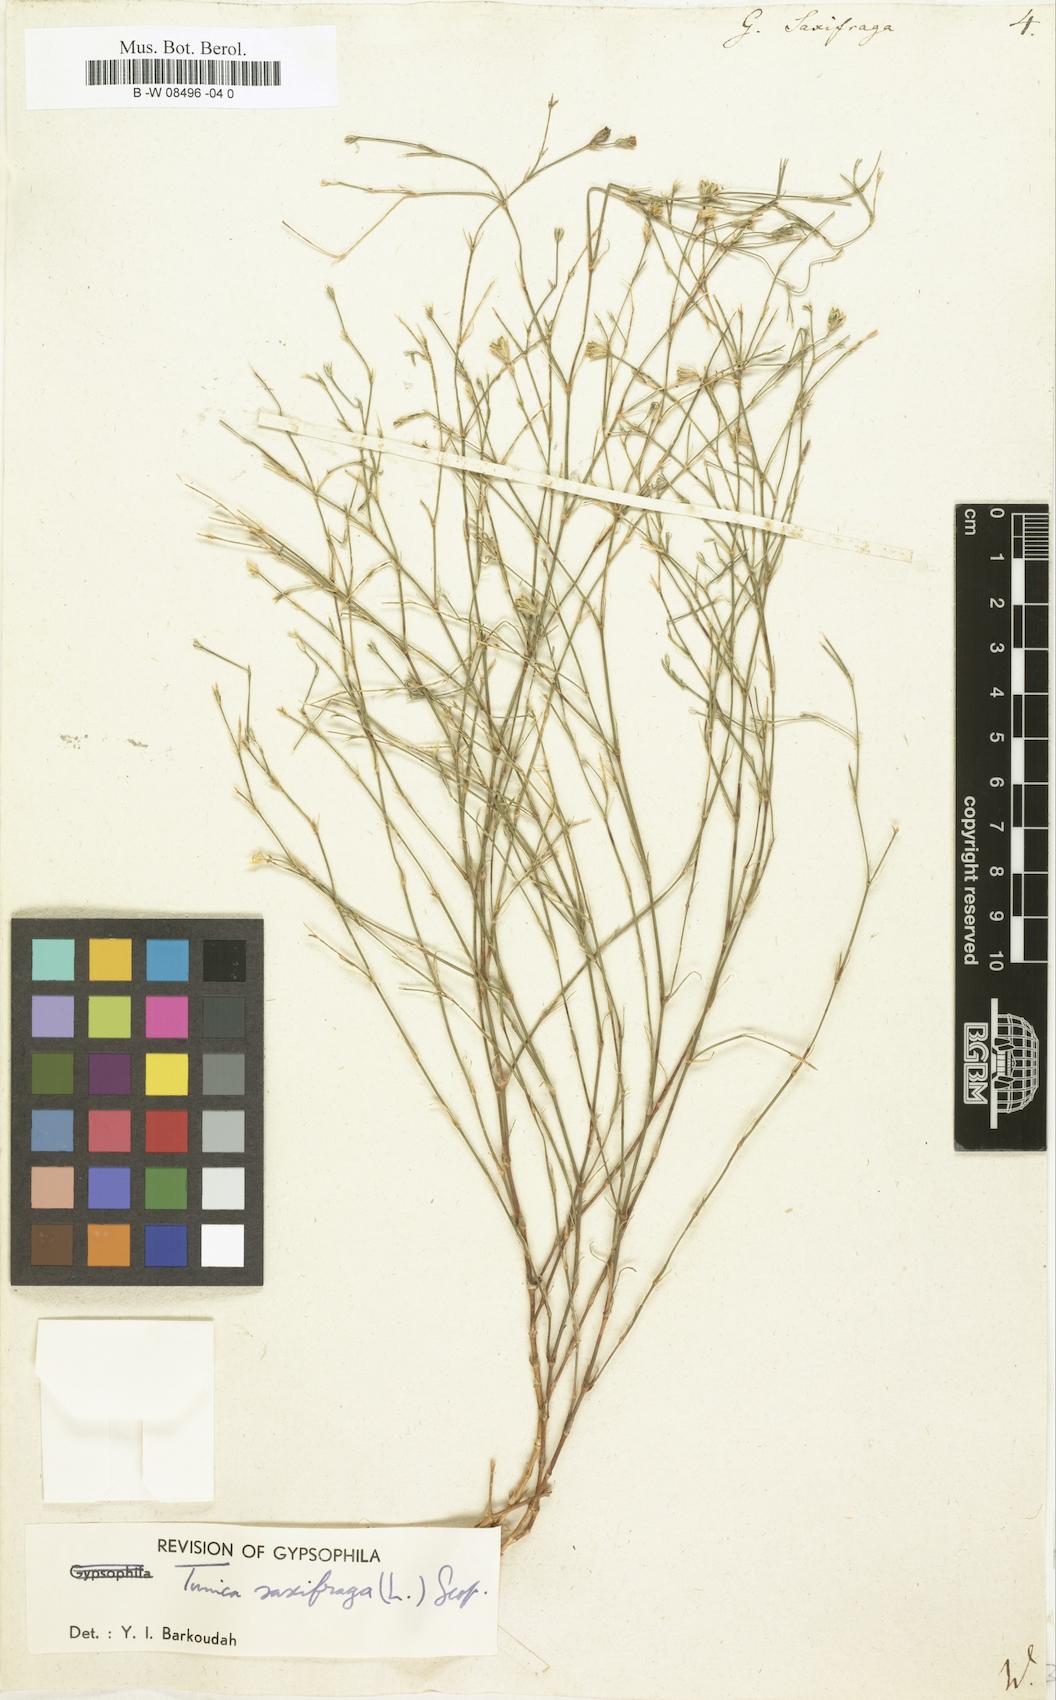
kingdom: Plantae
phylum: Tracheophyta
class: Magnoliopsida
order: Caryophyllales
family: Caryophyllaceae
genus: Petrorhagia
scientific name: Petrorhagia saxifraga
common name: Tunicflower
